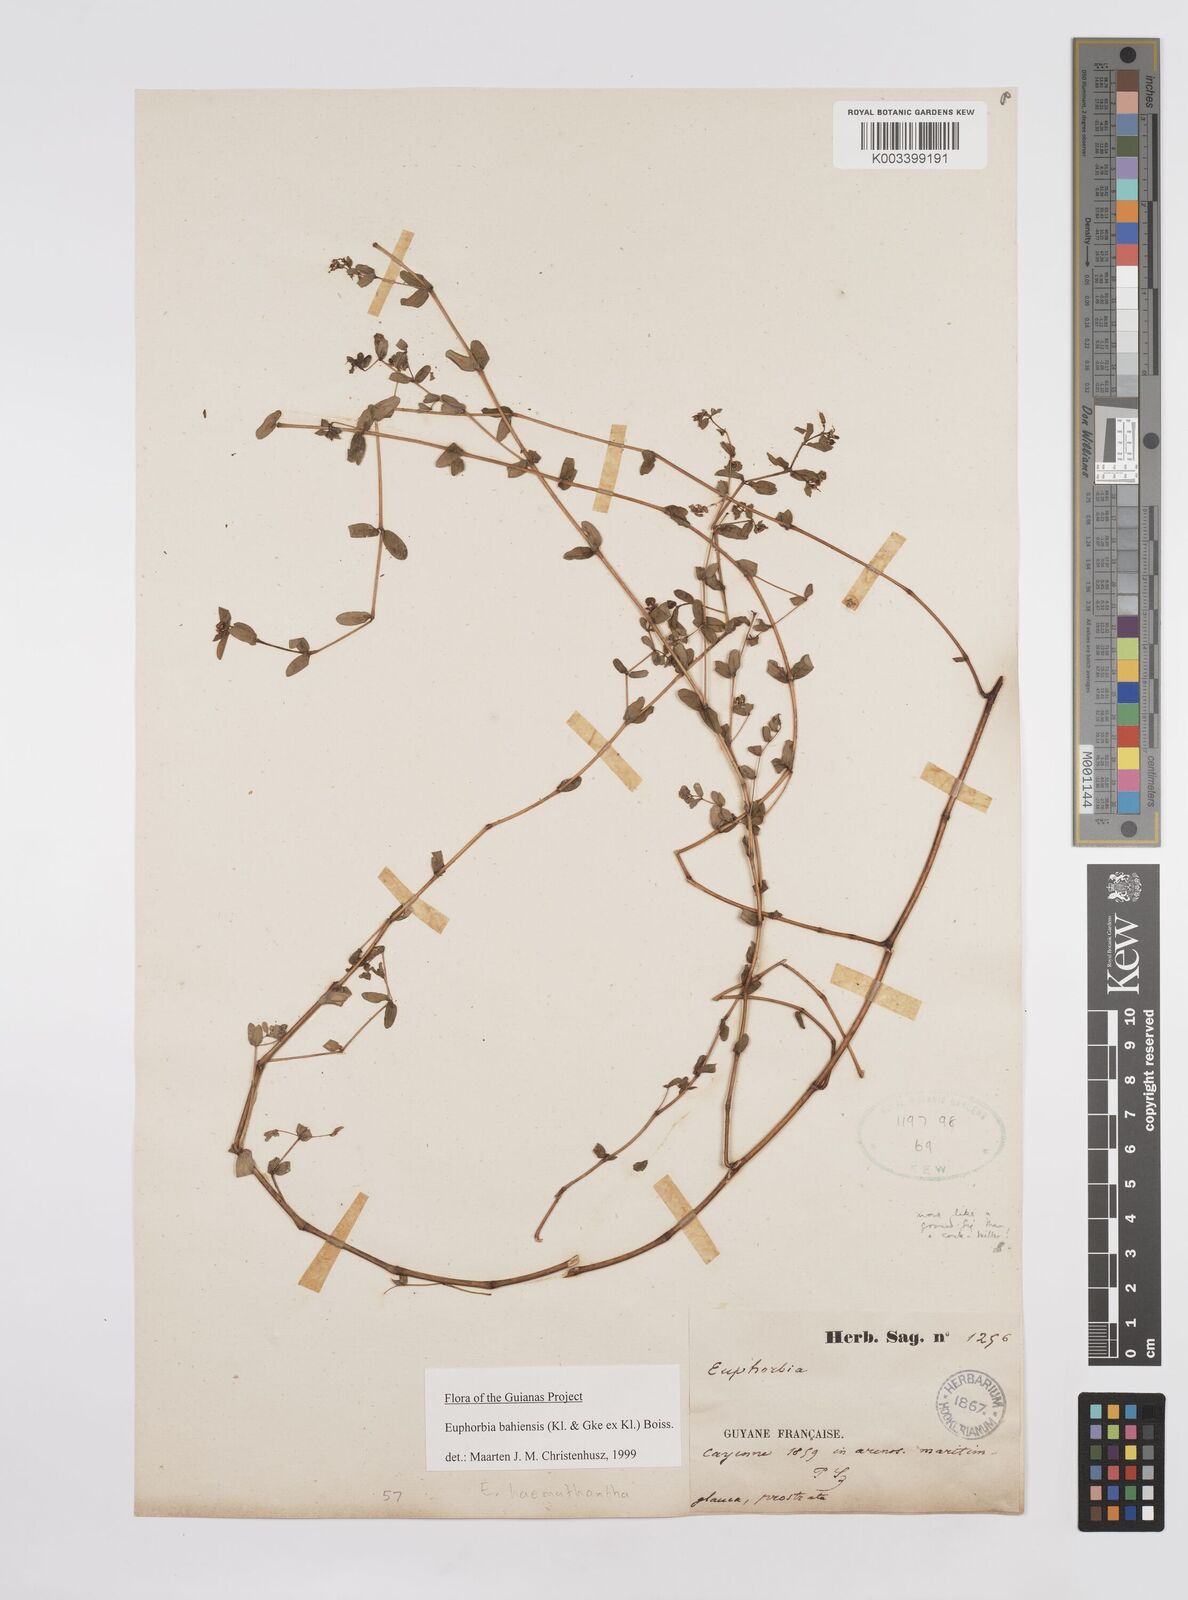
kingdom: Plantae
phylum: Tracheophyta
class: Magnoliopsida
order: Malpighiales
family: Euphorbiaceae
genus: Euphorbia
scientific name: Euphorbia bahiensis
